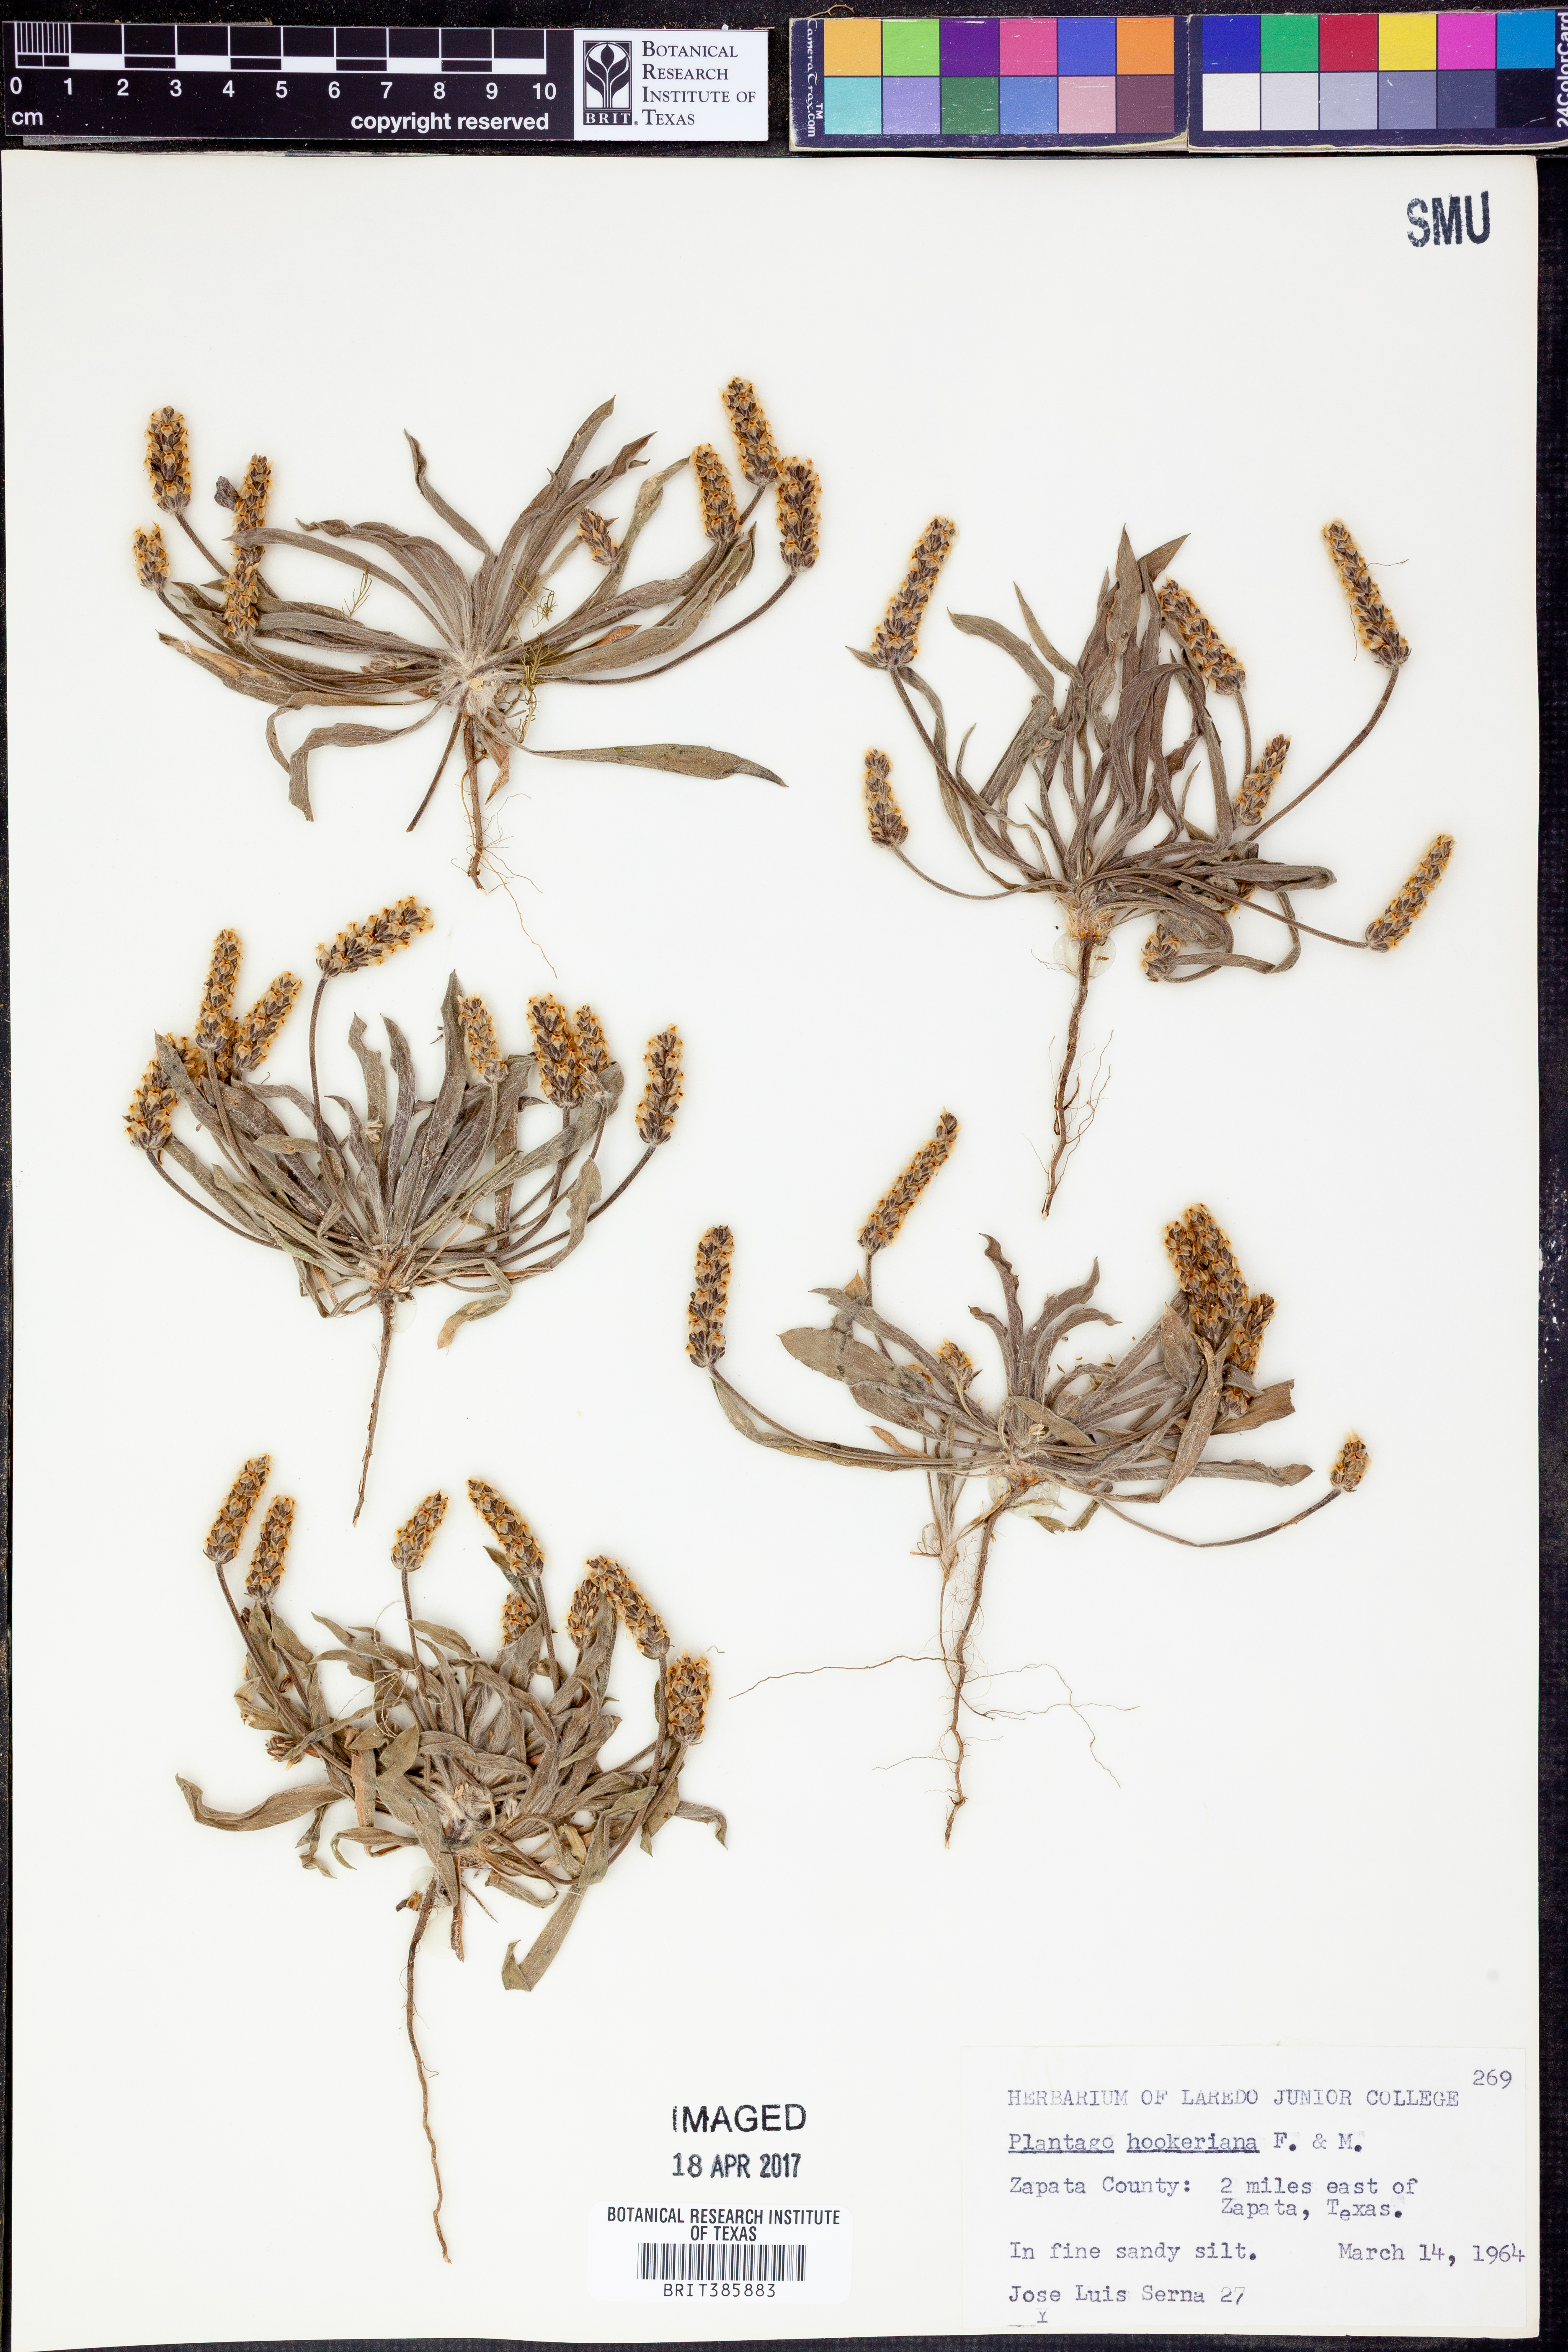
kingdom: Plantae
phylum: Tracheophyta
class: Magnoliopsida
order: Lamiales
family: Plantaginaceae
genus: Plantago
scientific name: Plantago hookeriana
